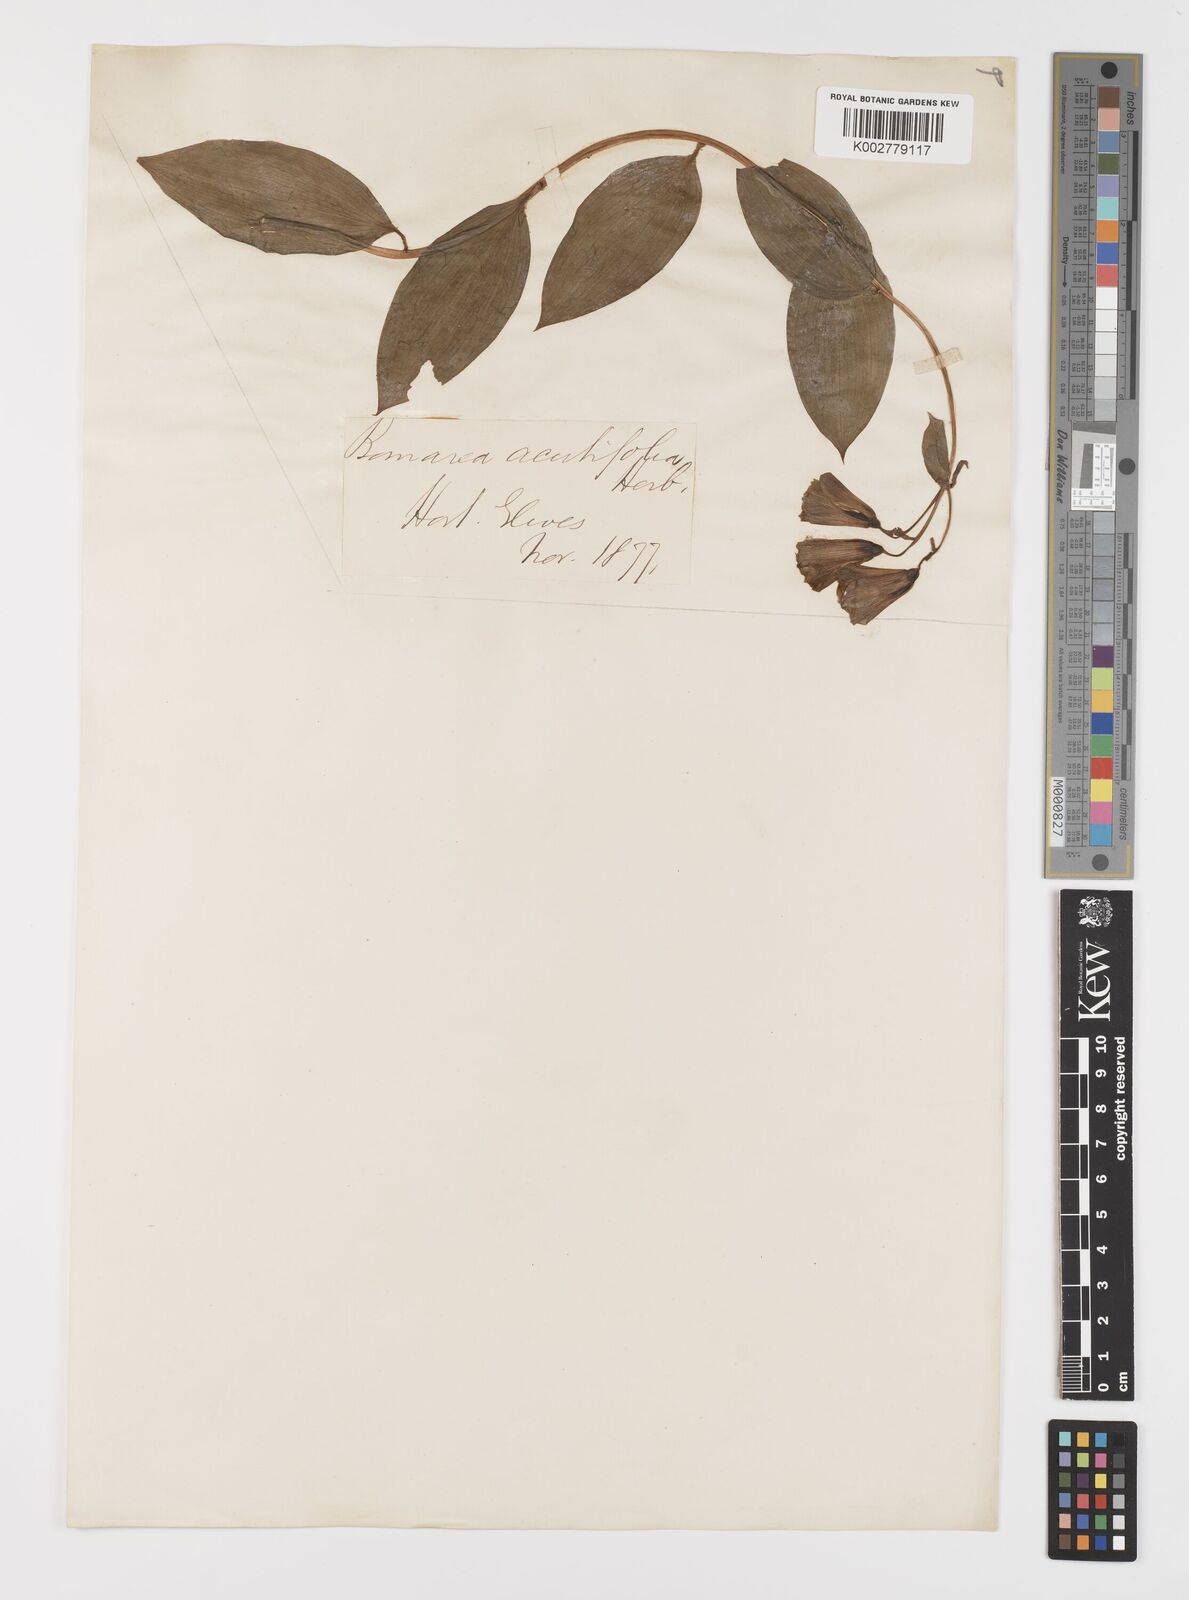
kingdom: Plantae
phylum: Tracheophyta
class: Liliopsida
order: Liliales
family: Alstroemeriaceae
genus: Bomarea
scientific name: Bomarea acutifolia
